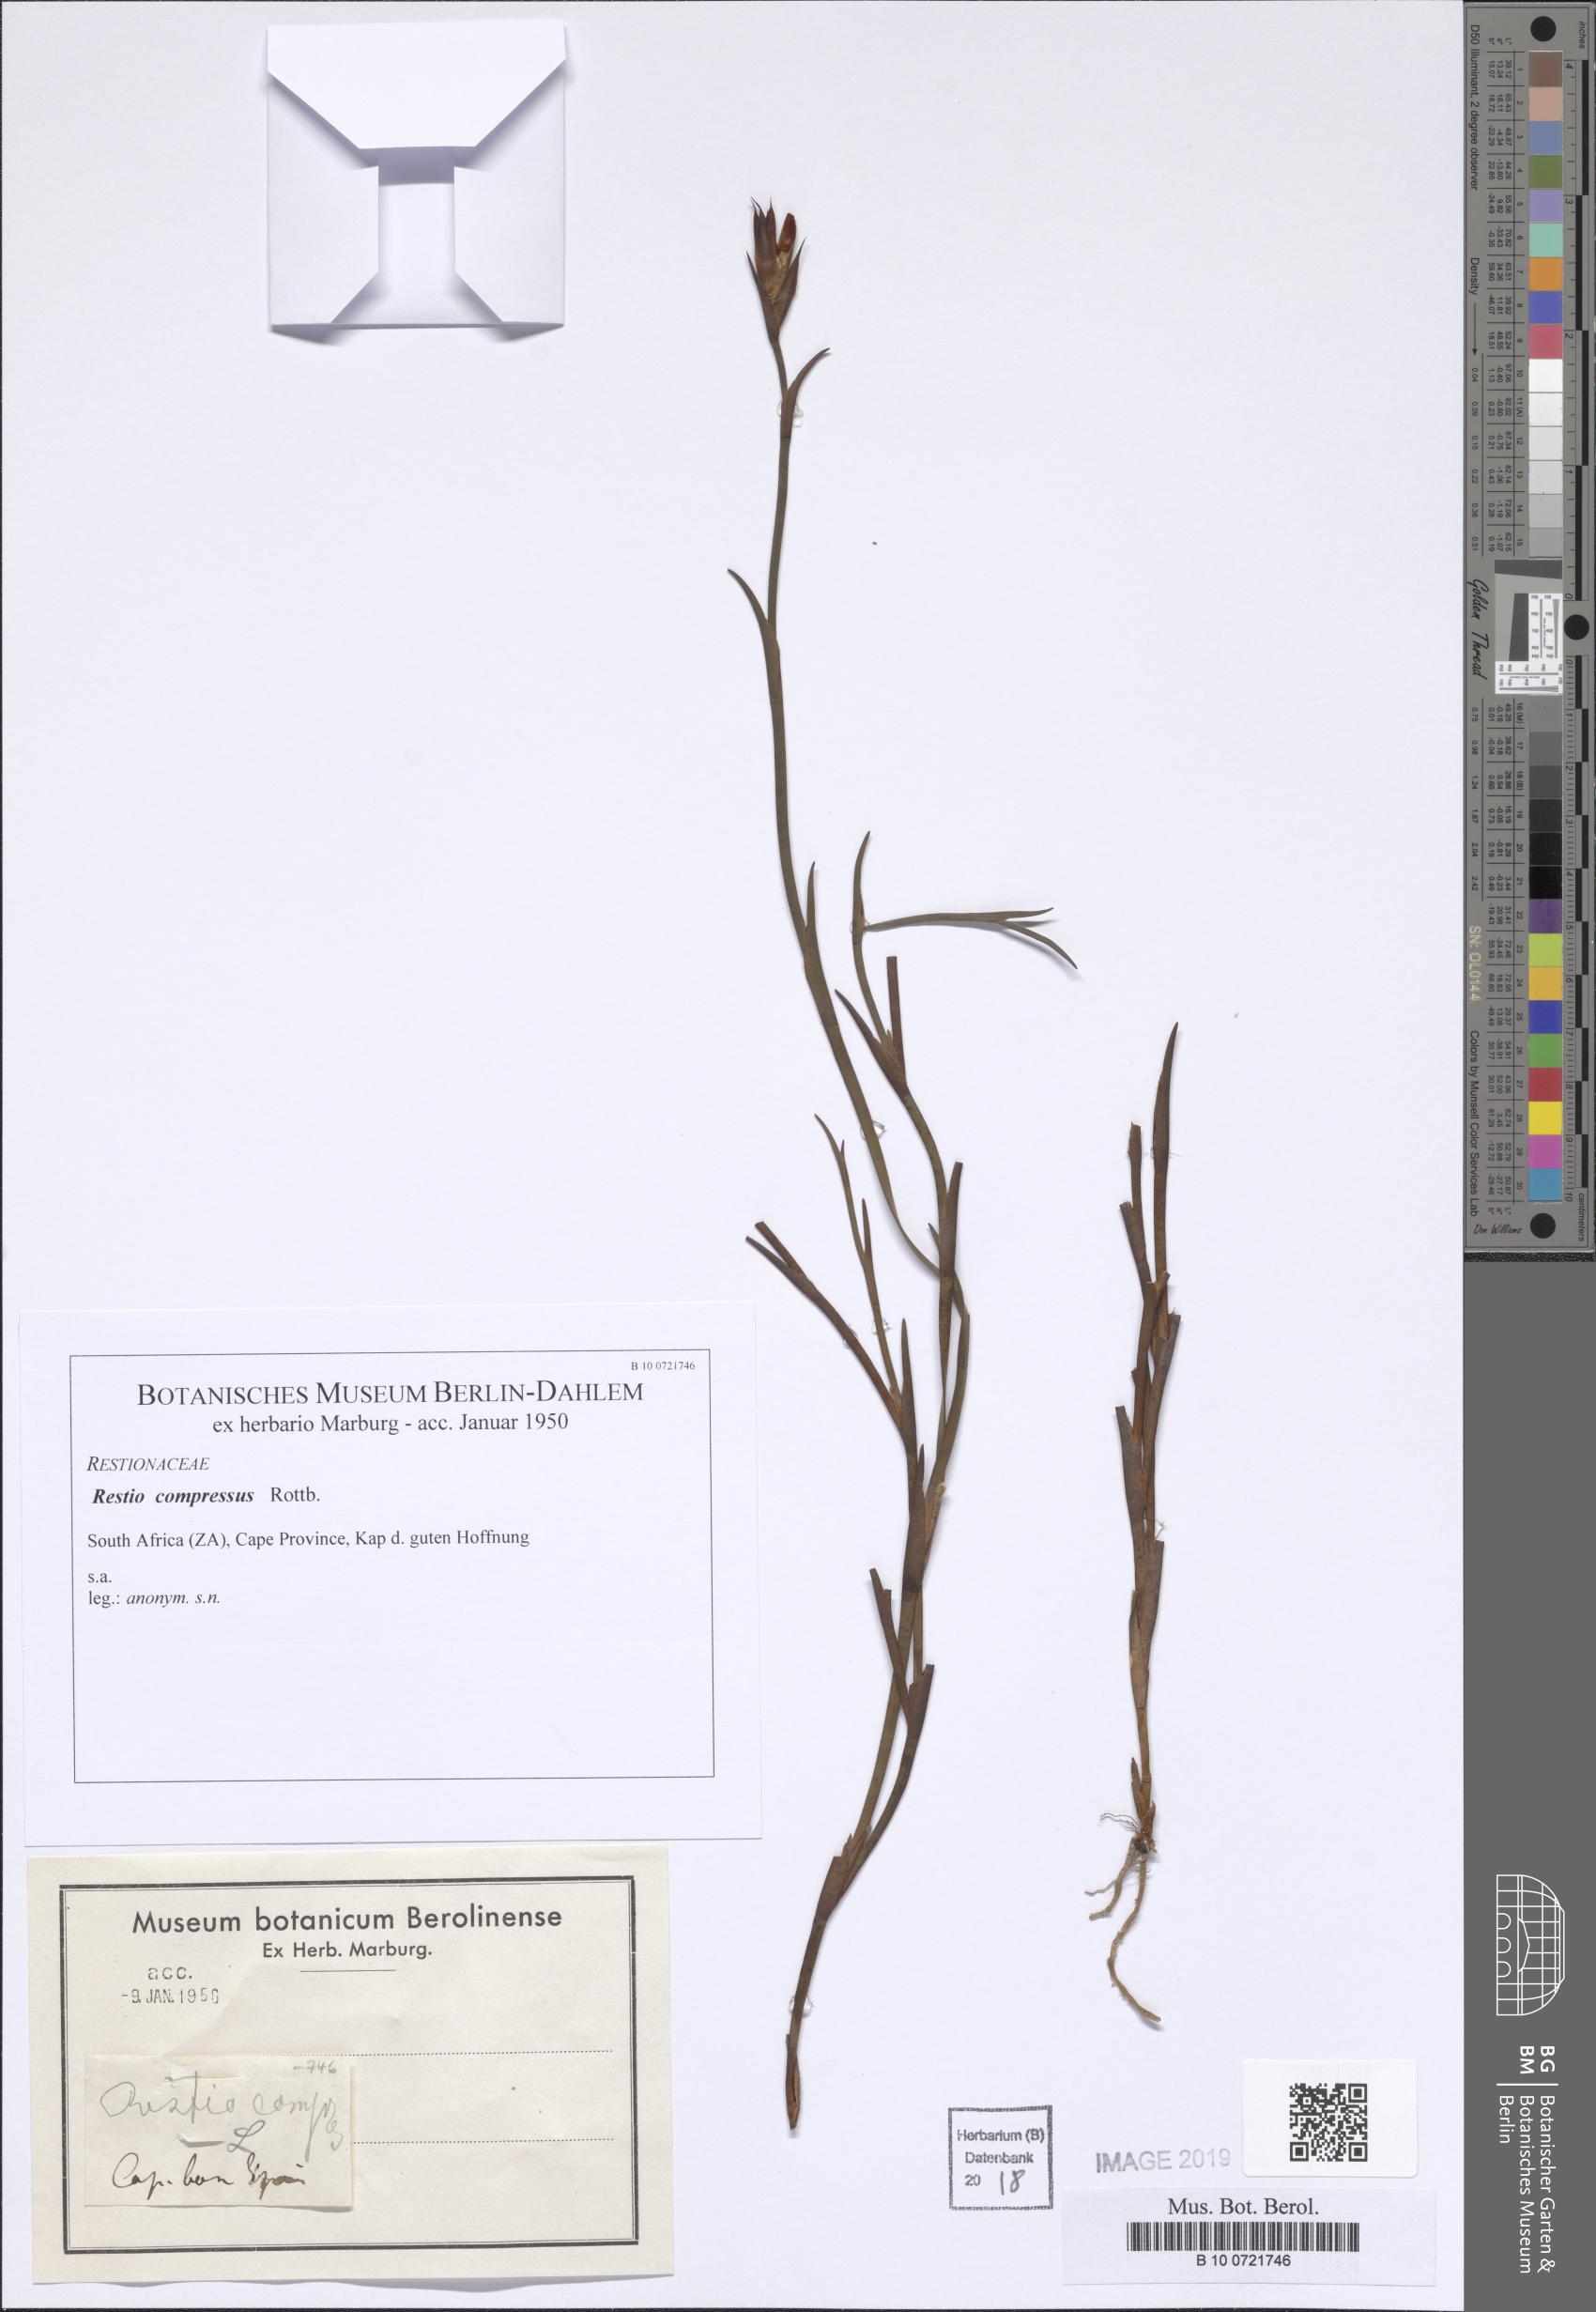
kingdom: Plantae
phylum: Tracheophyta
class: Liliopsida
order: Poales
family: Restionaceae
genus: Platycaulos
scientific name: Platycaulos compressus
